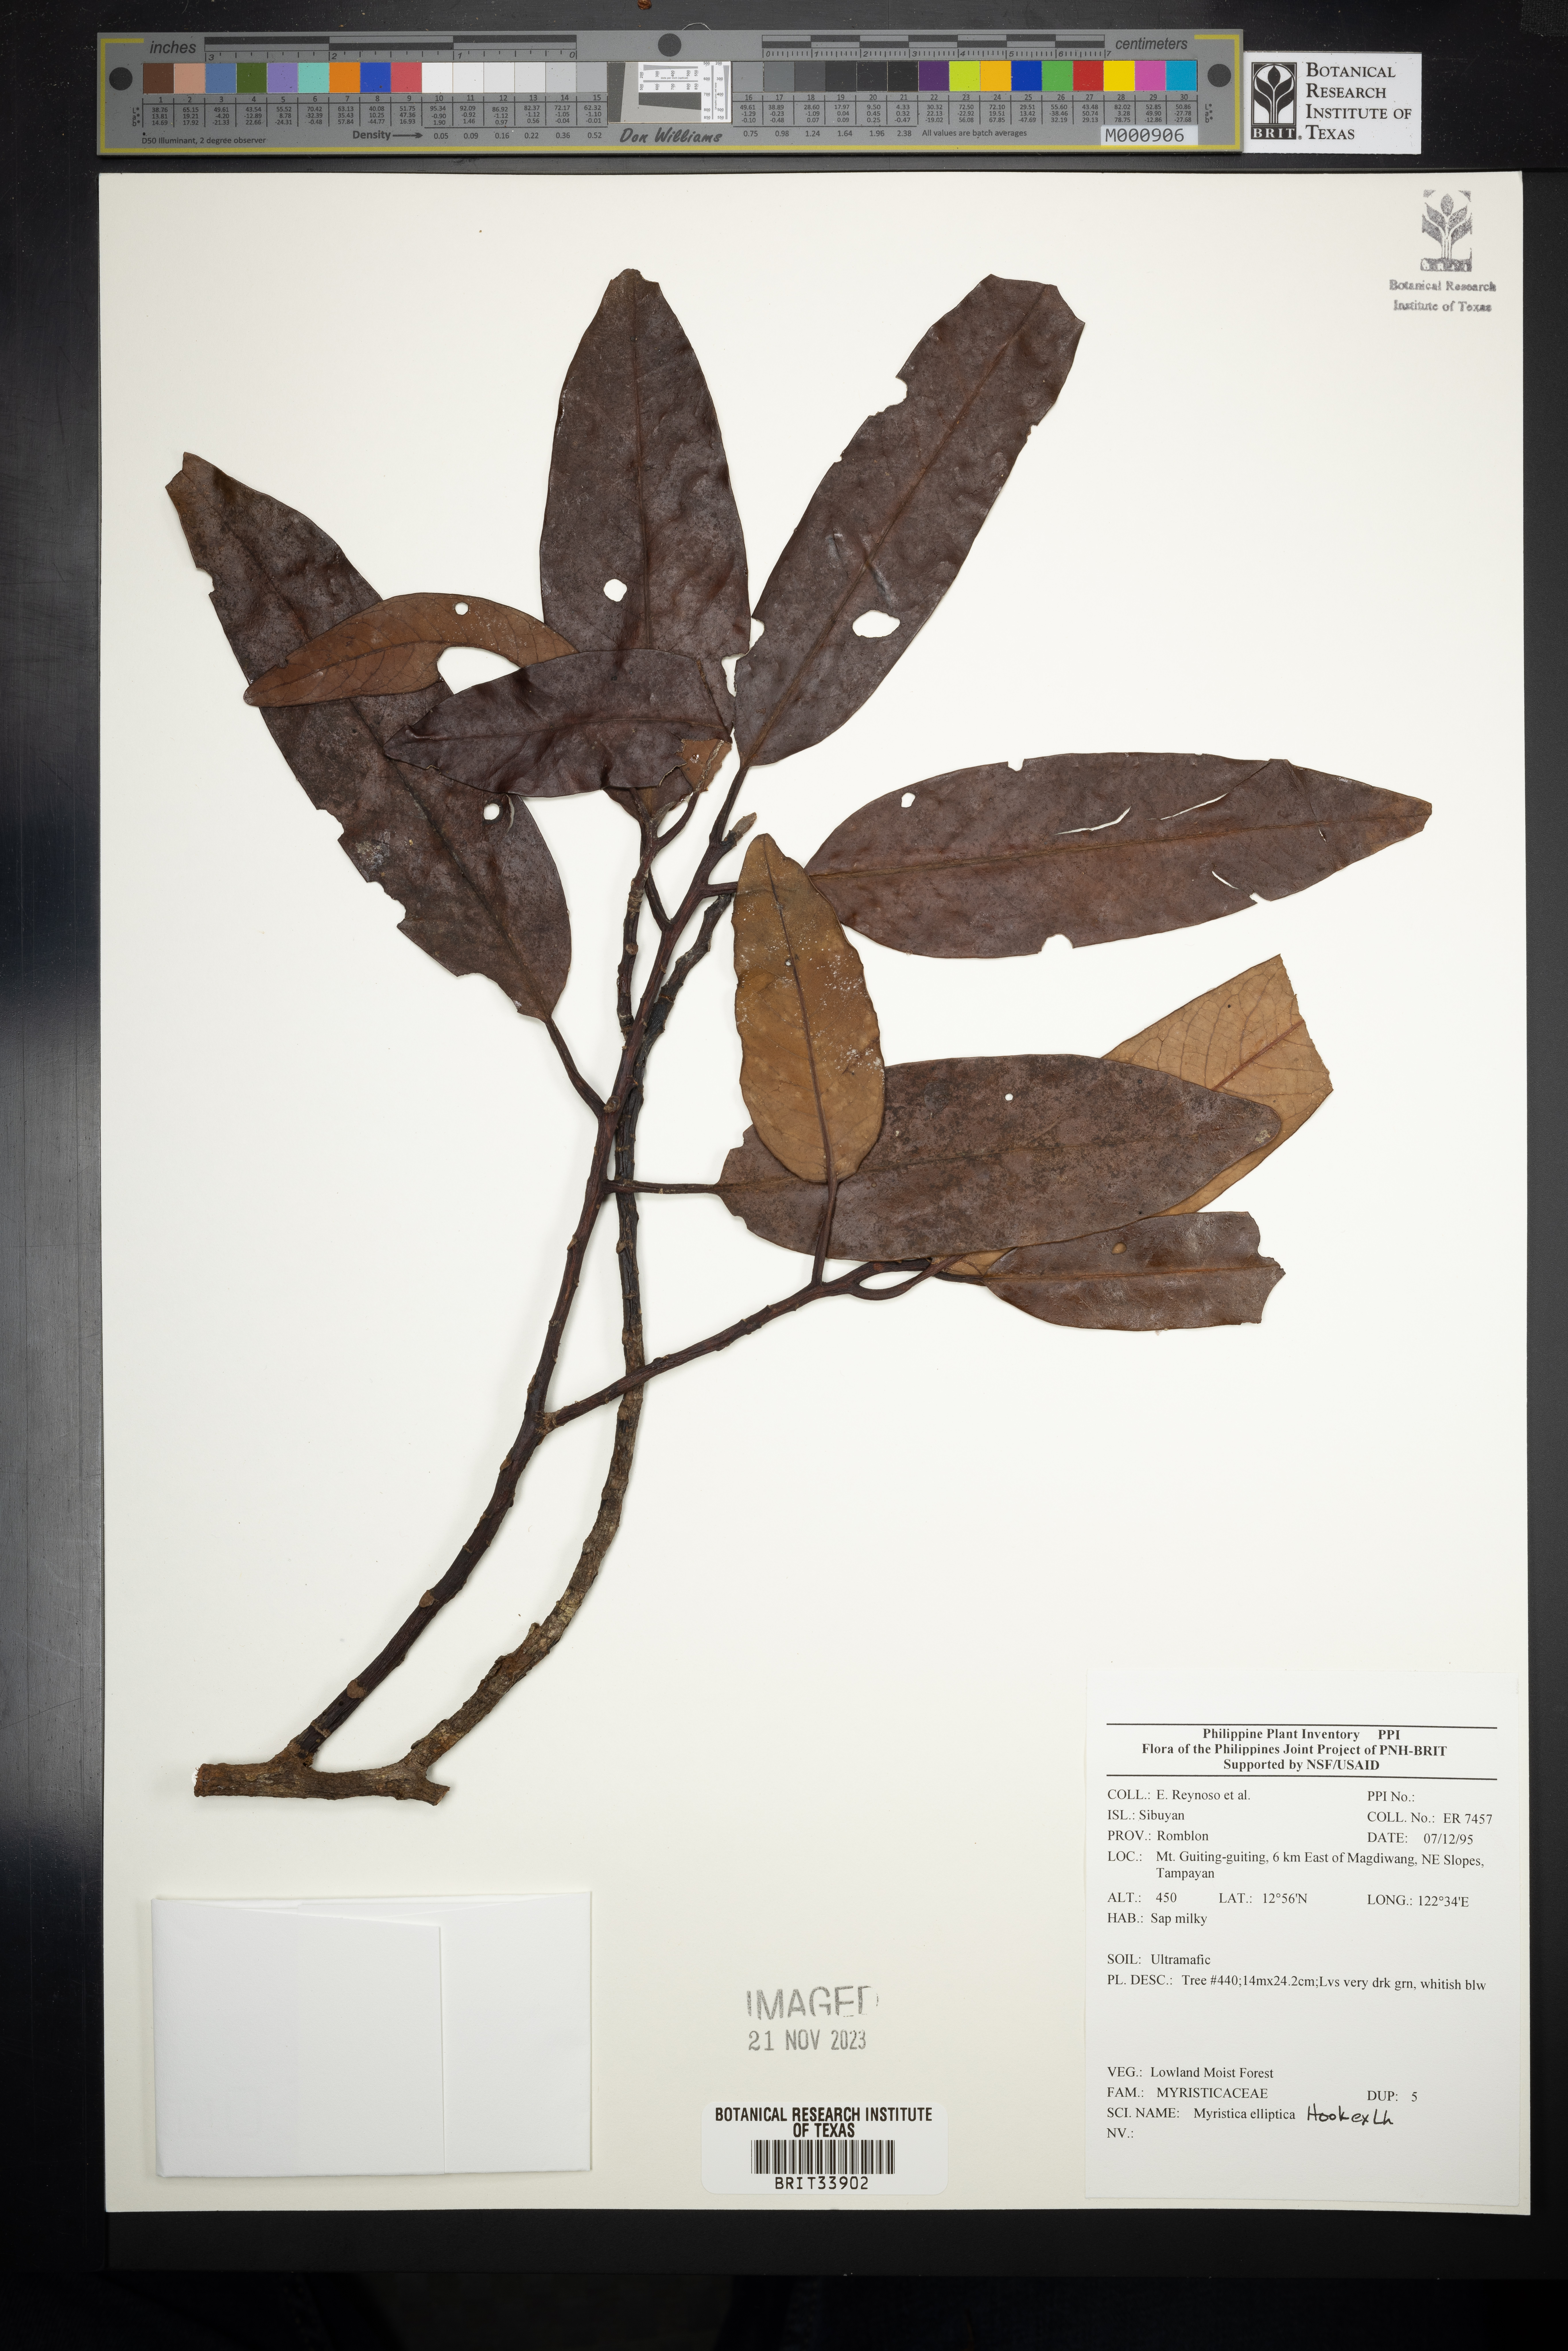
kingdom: Plantae
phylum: Tracheophyta
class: Magnoliopsida
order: Magnoliales
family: Myristicaceae
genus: Myristica
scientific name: Myristica
